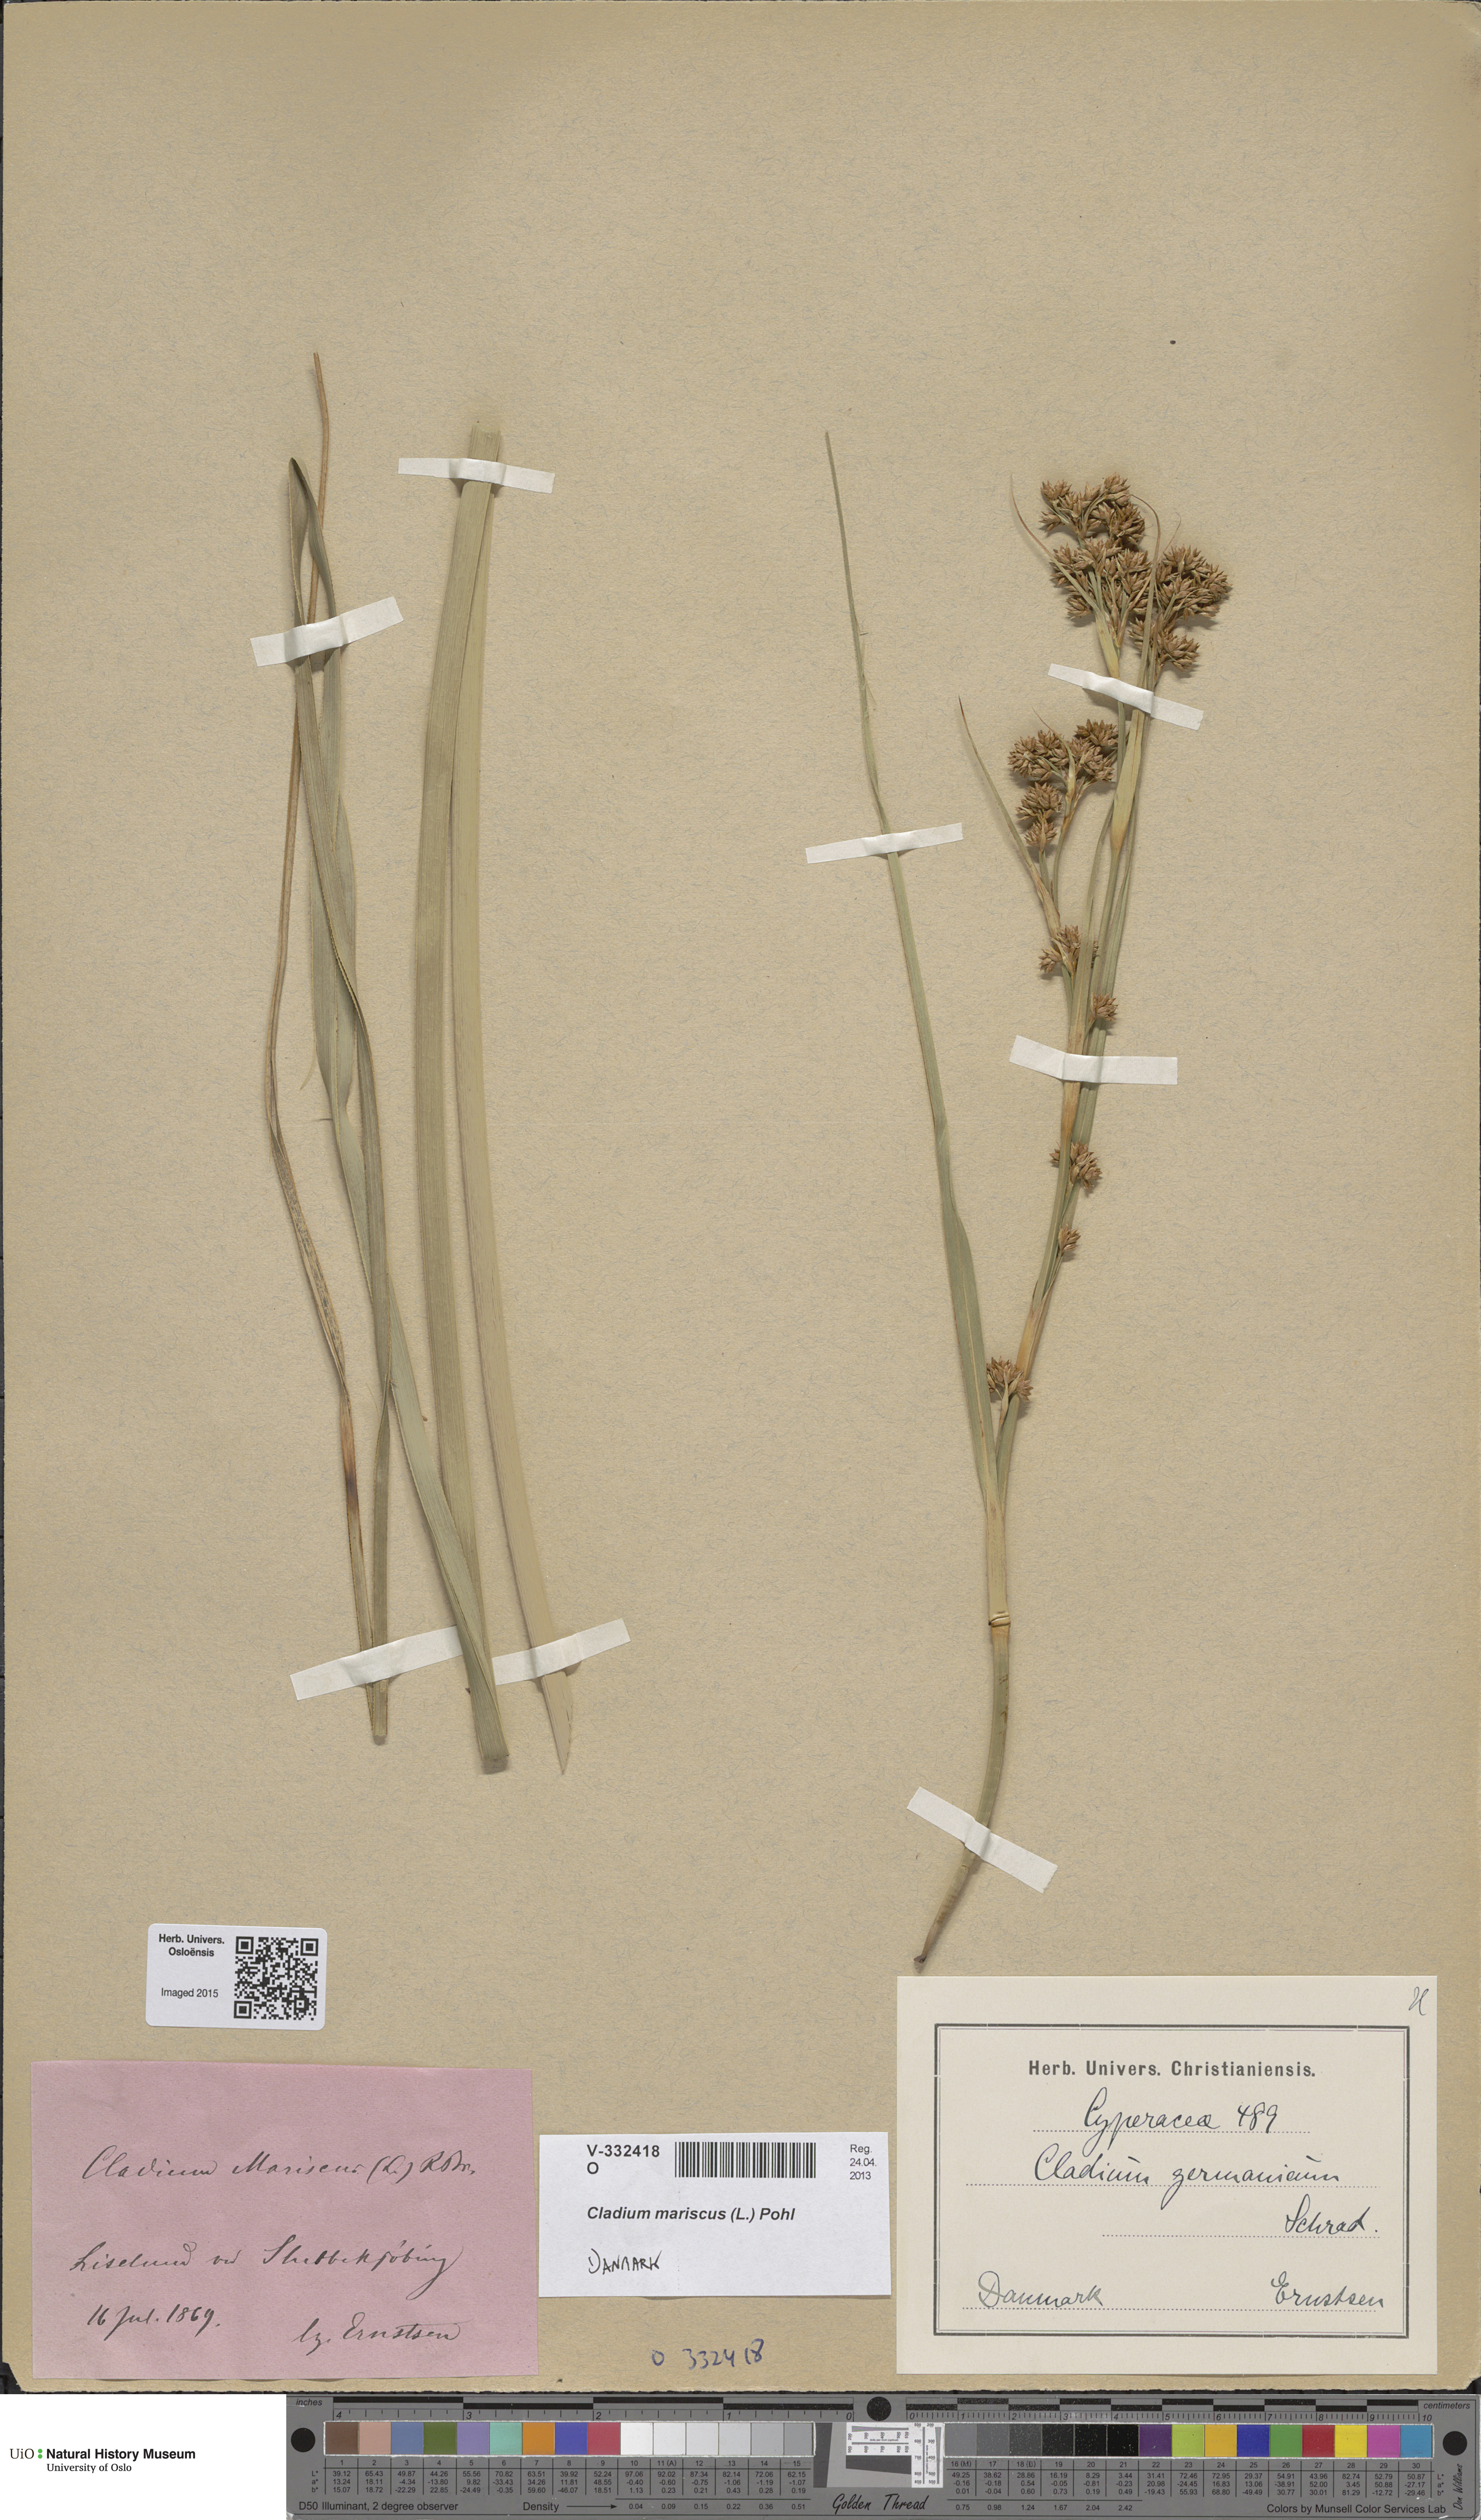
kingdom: Plantae
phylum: Tracheophyta
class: Liliopsida
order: Poales
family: Cyperaceae
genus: Cladium
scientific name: Cladium mariscus
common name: Great fen-sedge
